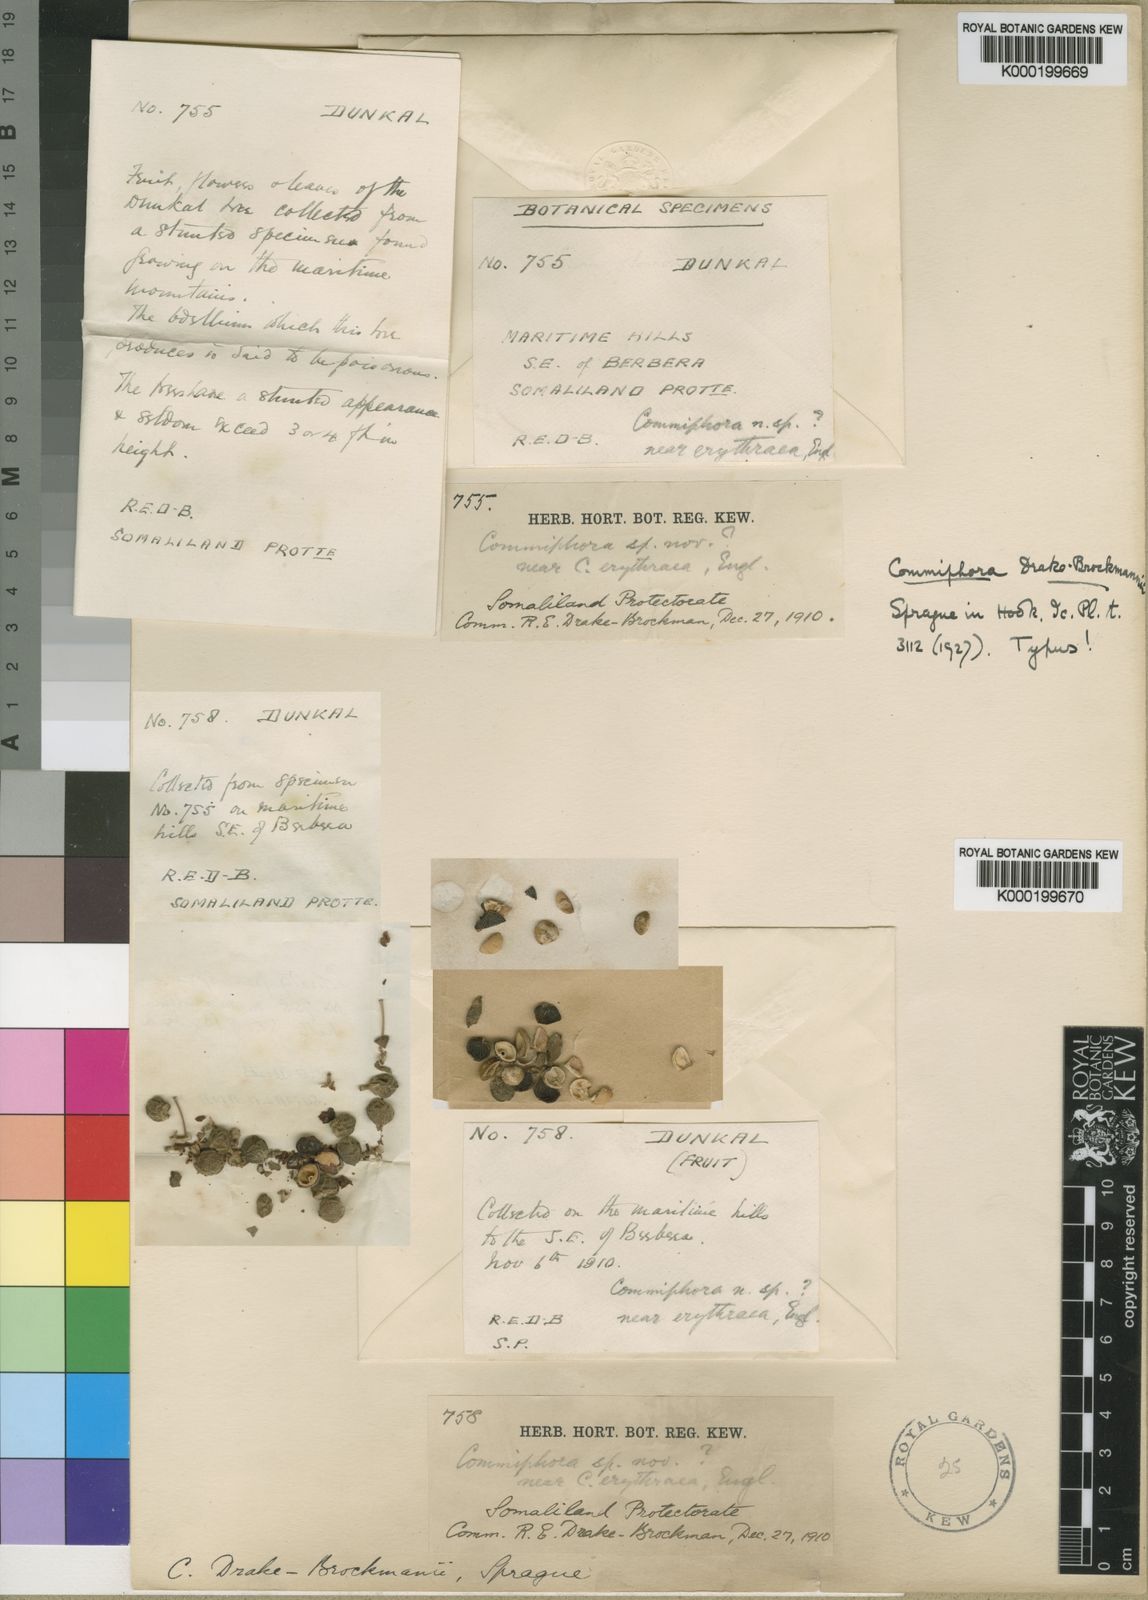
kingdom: Plantae
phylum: Tracheophyta
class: Magnoliopsida
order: Sapindales
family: Burseraceae
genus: Commiphora
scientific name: Commiphora drake-brockmanii
